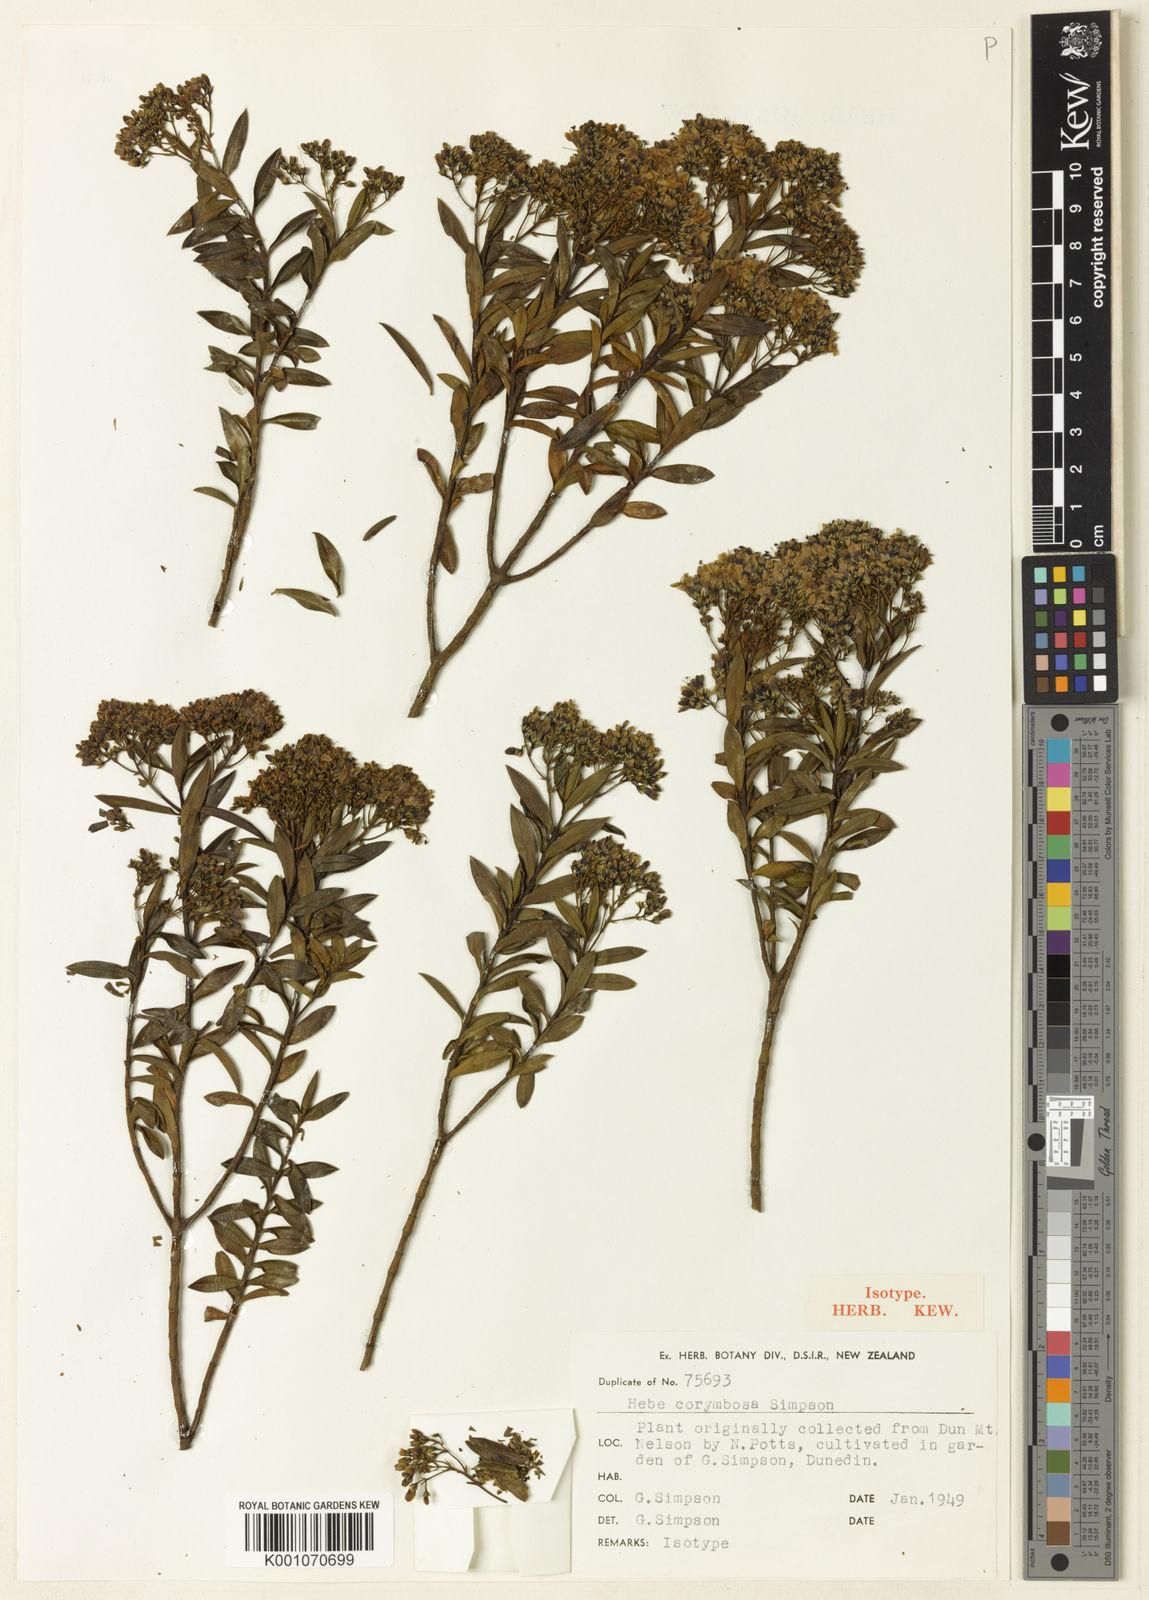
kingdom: Plantae
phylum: Tracheophyta
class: Magnoliopsida
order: Lamiales
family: Plantaginaceae
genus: Veronica
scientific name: Veronica subfulvida
